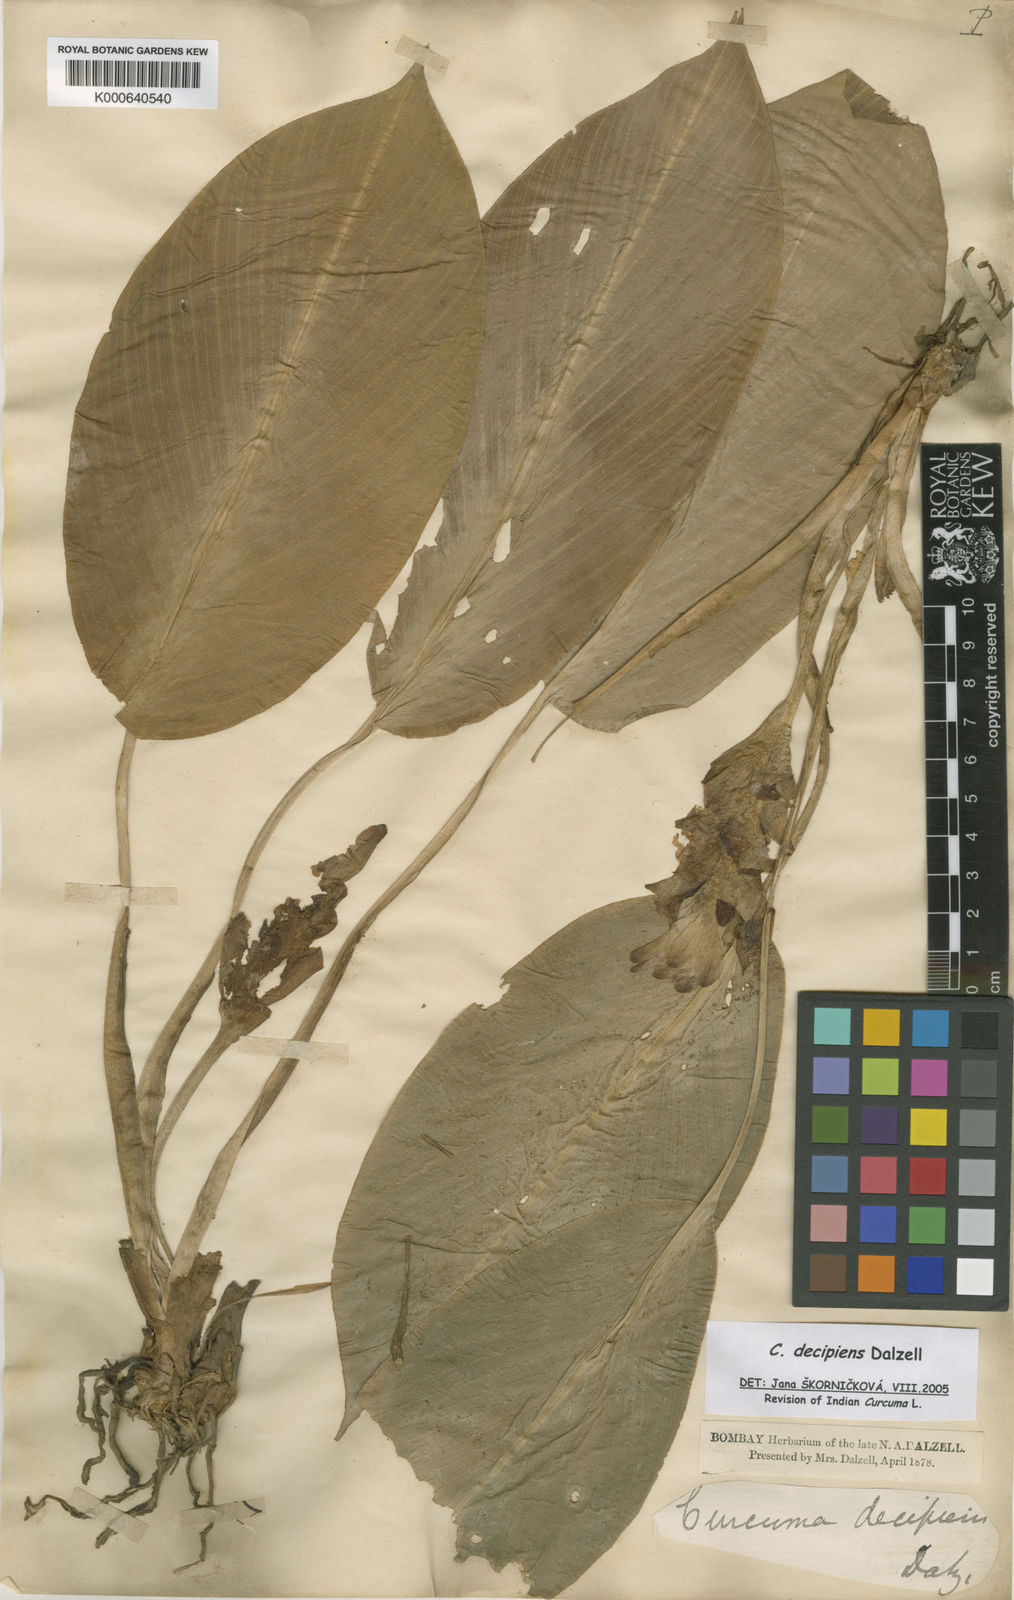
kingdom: Plantae
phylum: Tracheophyta
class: Liliopsida
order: Zingiberales
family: Zingiberaceae
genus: Curcuma
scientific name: Curcuma decipiens
